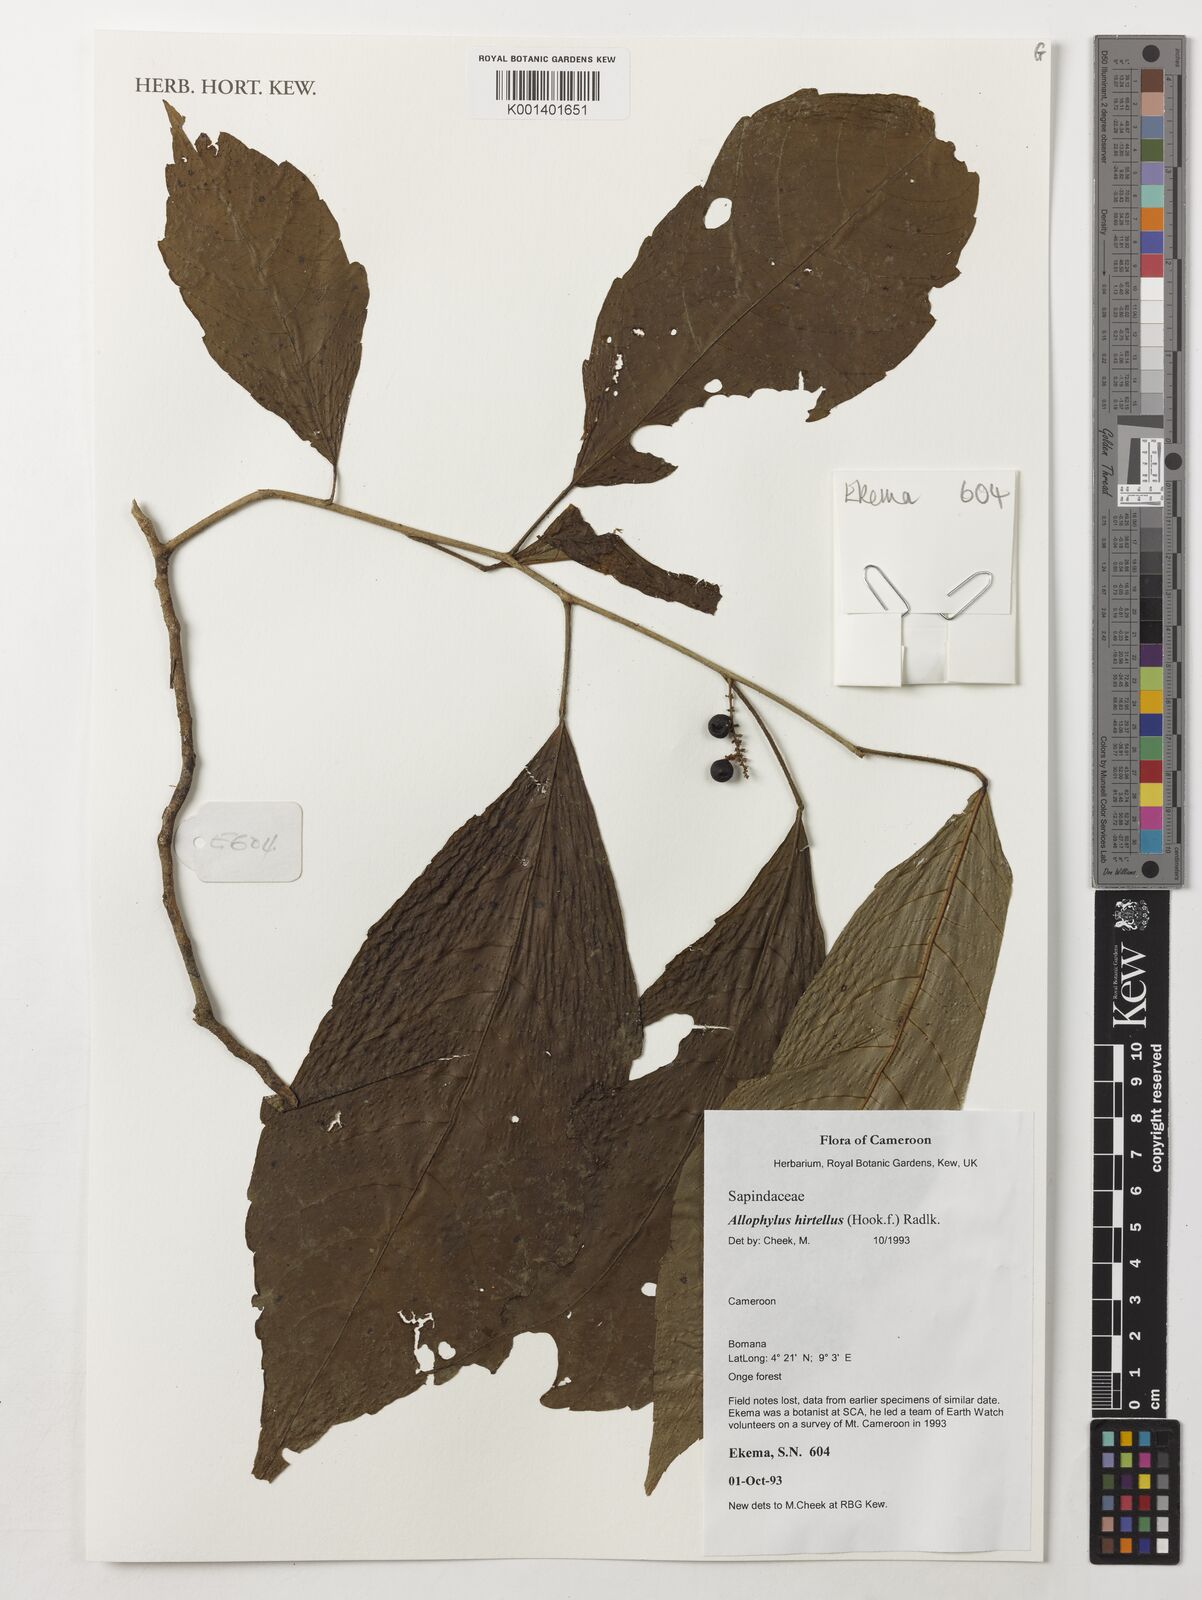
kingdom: Plantae
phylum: Tracheophyta
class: Magnoliopsida
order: Sapindales
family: Sapindaceae
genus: Allophylus
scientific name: Allophylus hirtellus
